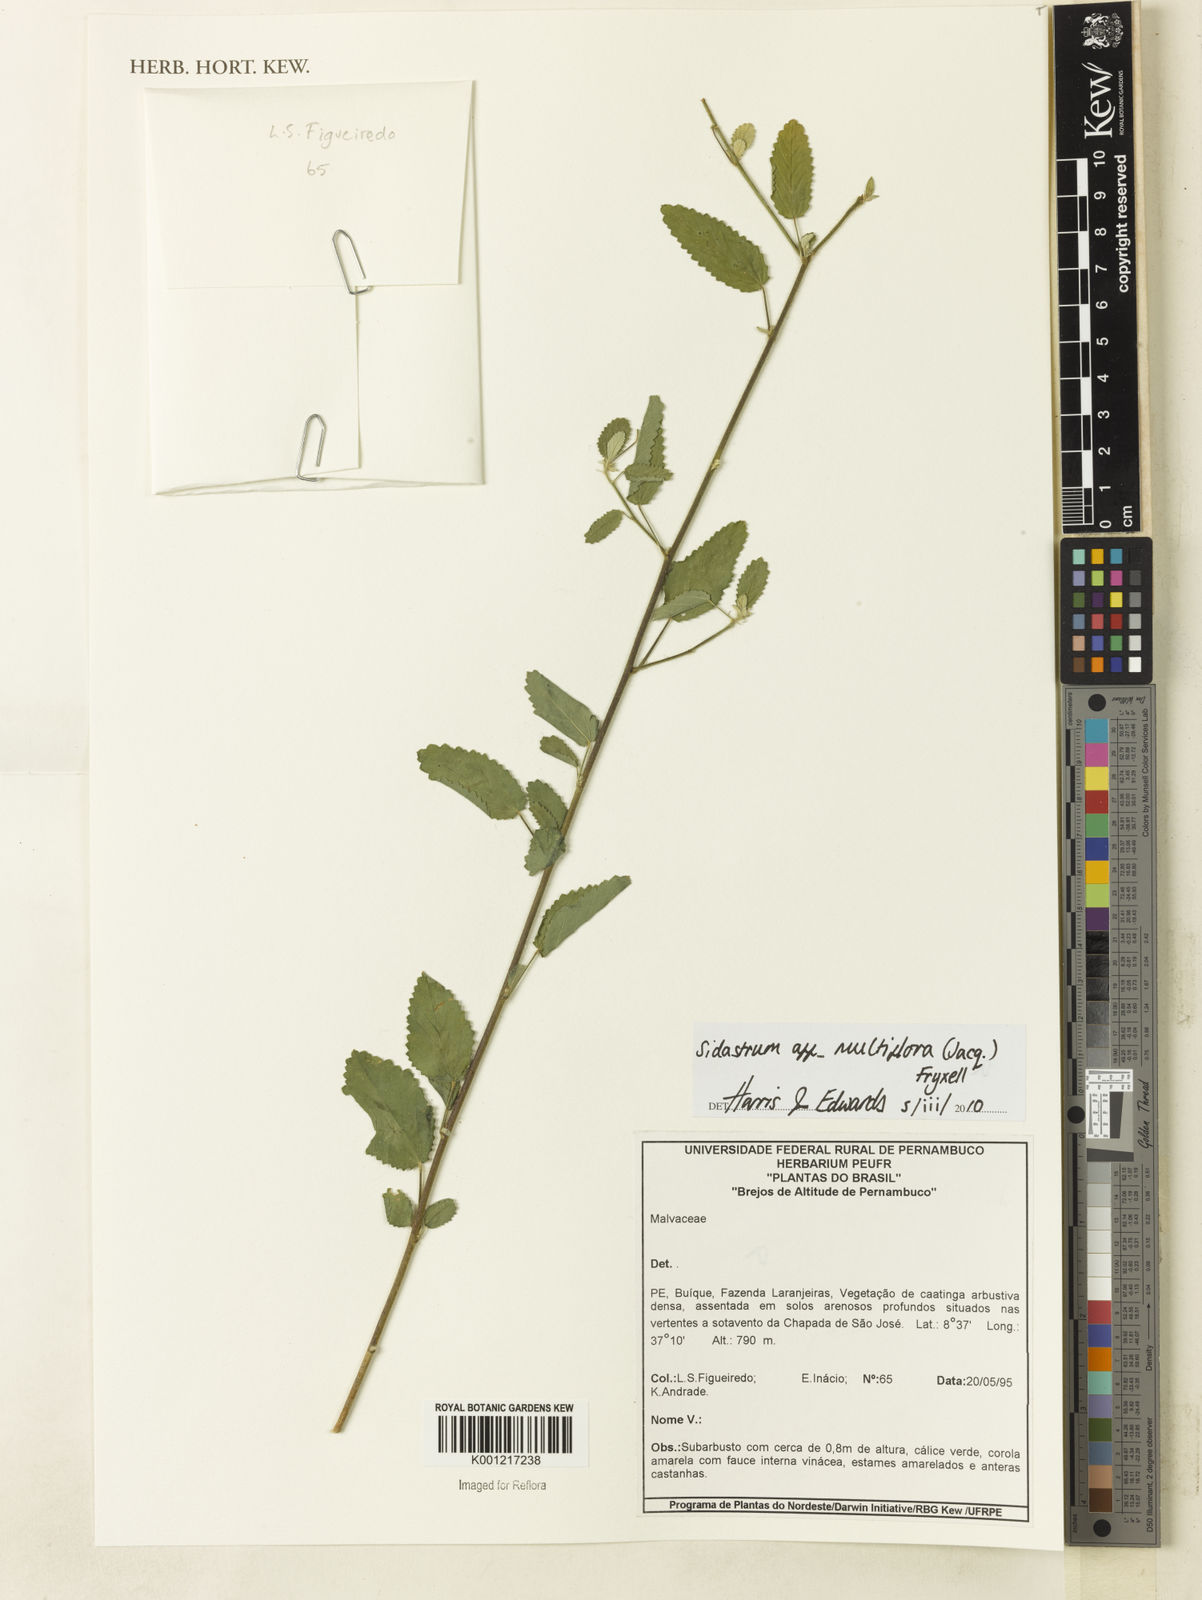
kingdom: Plantae
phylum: Tracheophyta
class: Magnoliopsida
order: Malvales
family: Malvaceae
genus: Sidastrum
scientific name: Sidastrum multiflorum
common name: Manyflower sandmallow
